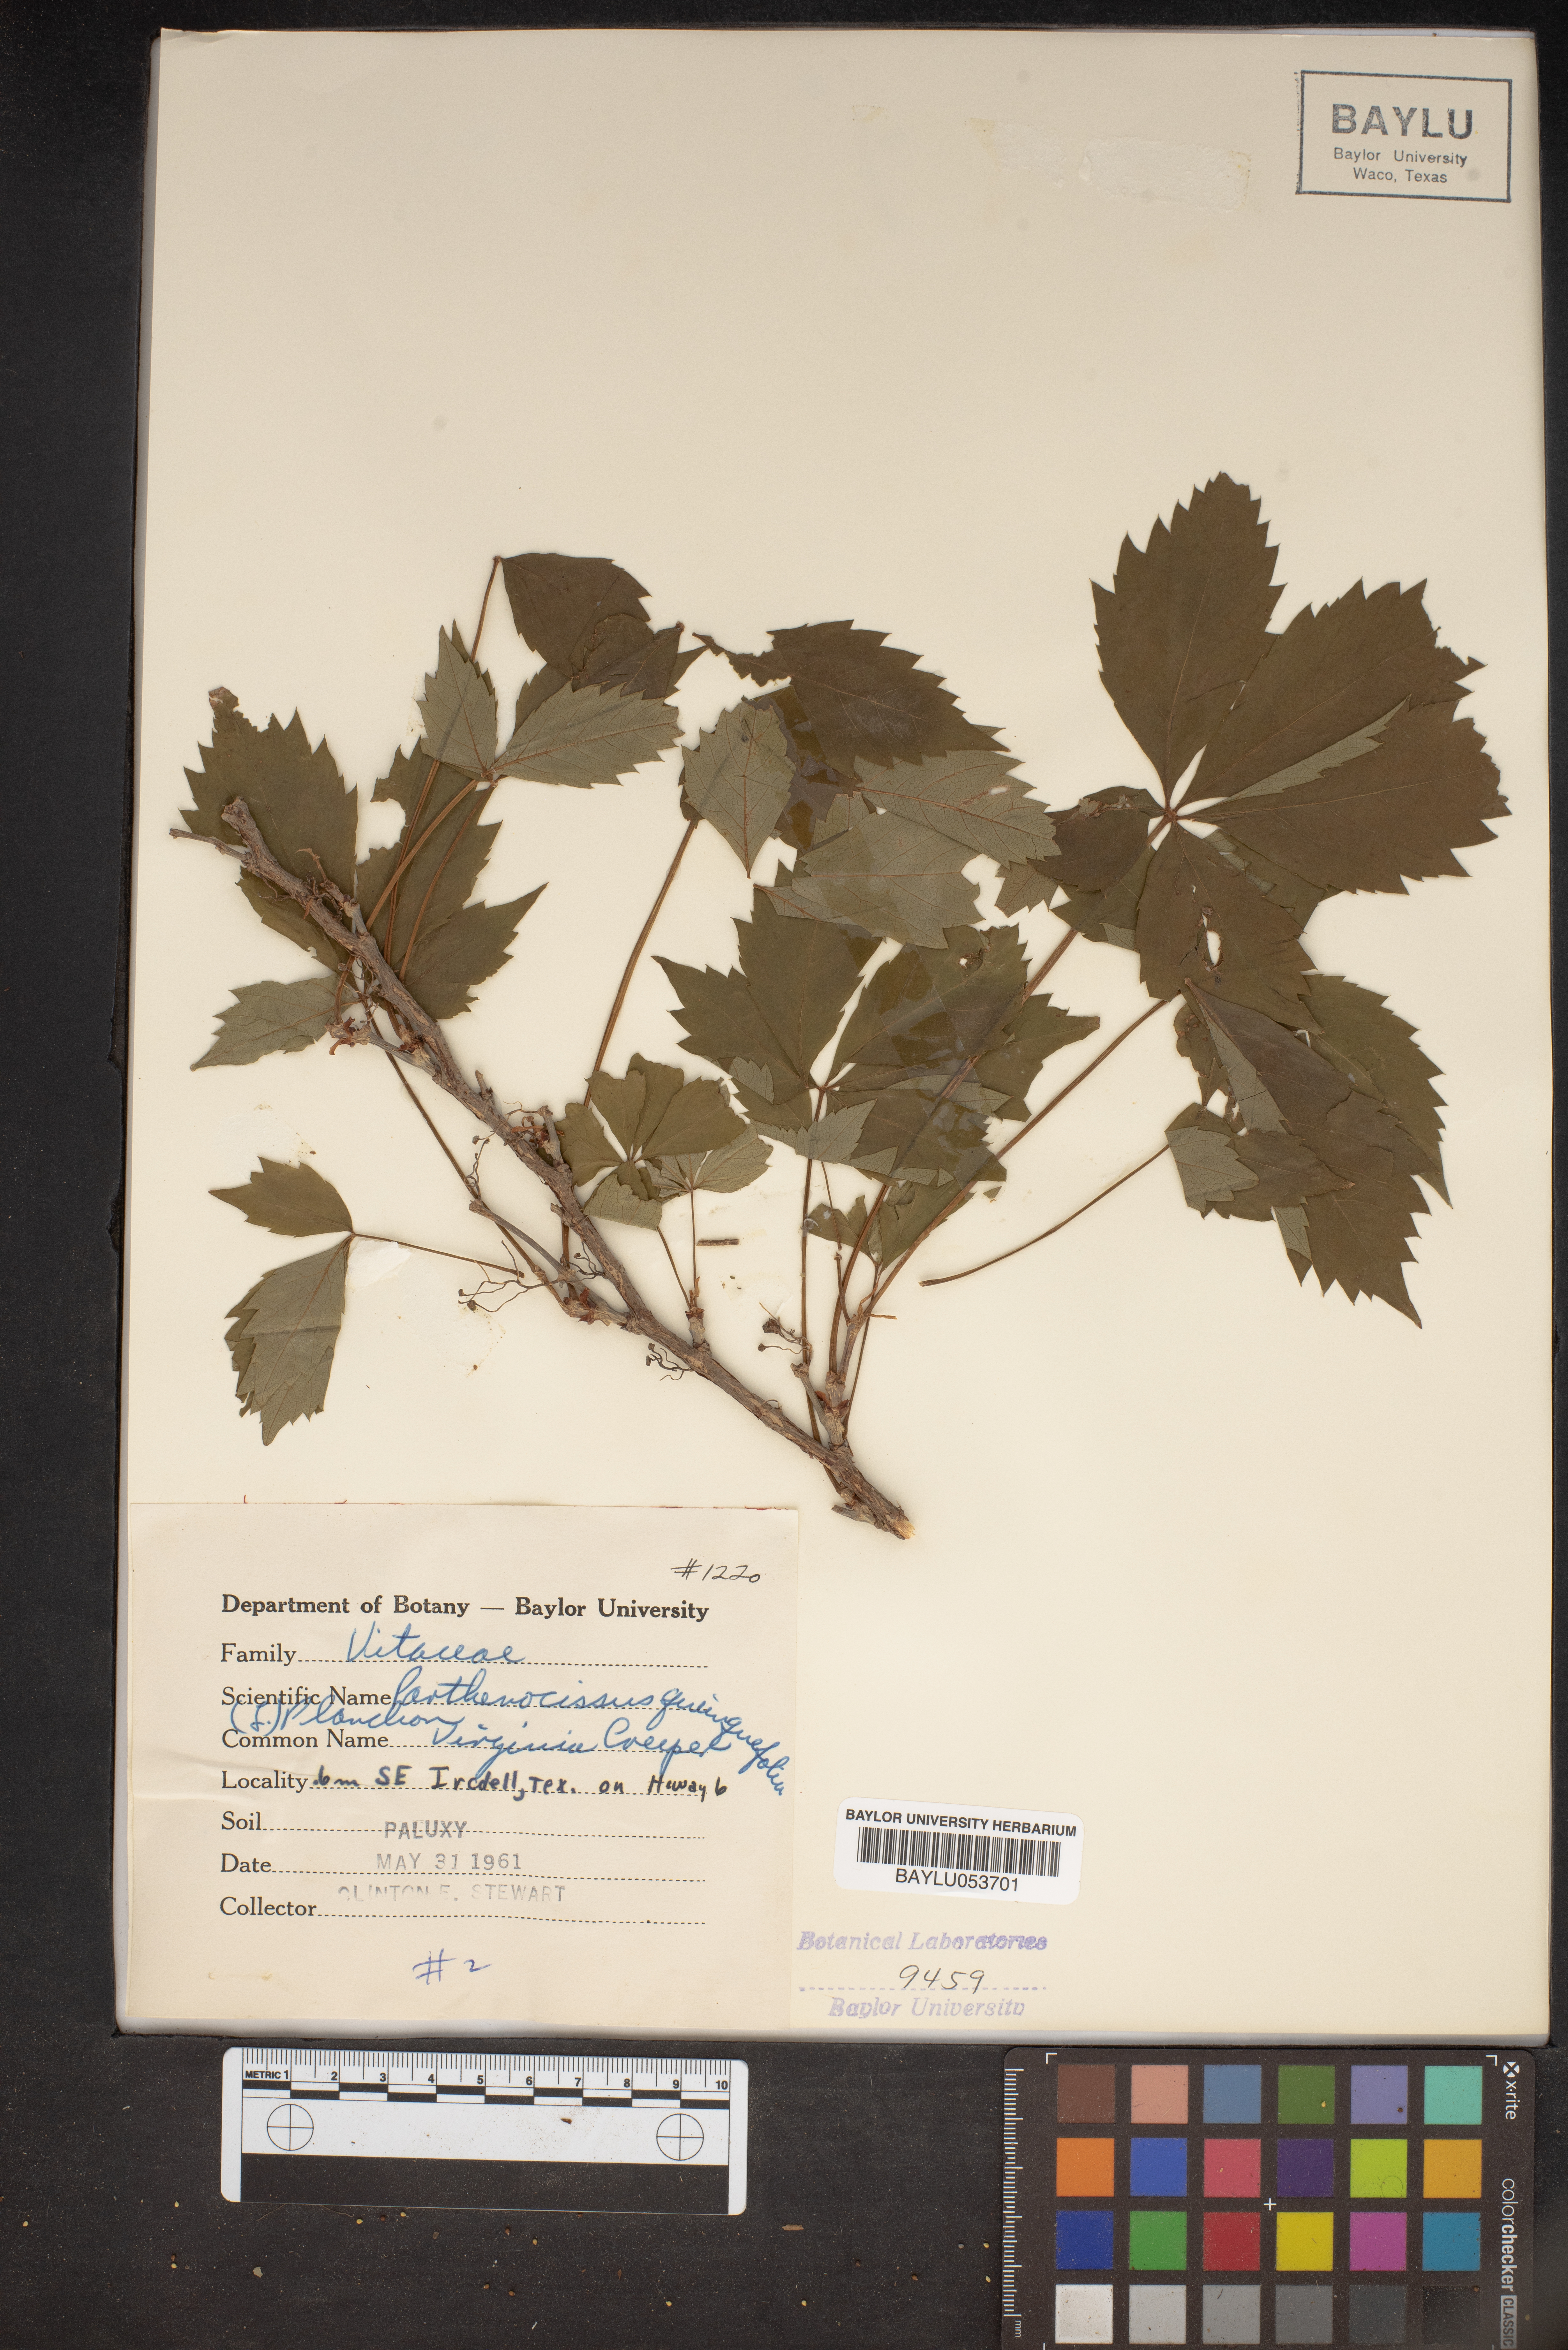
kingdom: Plantae
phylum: Tracheophyta
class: Magnoliopsida
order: Vitales
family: Vitaceae
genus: Parthenocissus
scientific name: Parthenocissus quinquefolia
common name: Virginia-creeper
